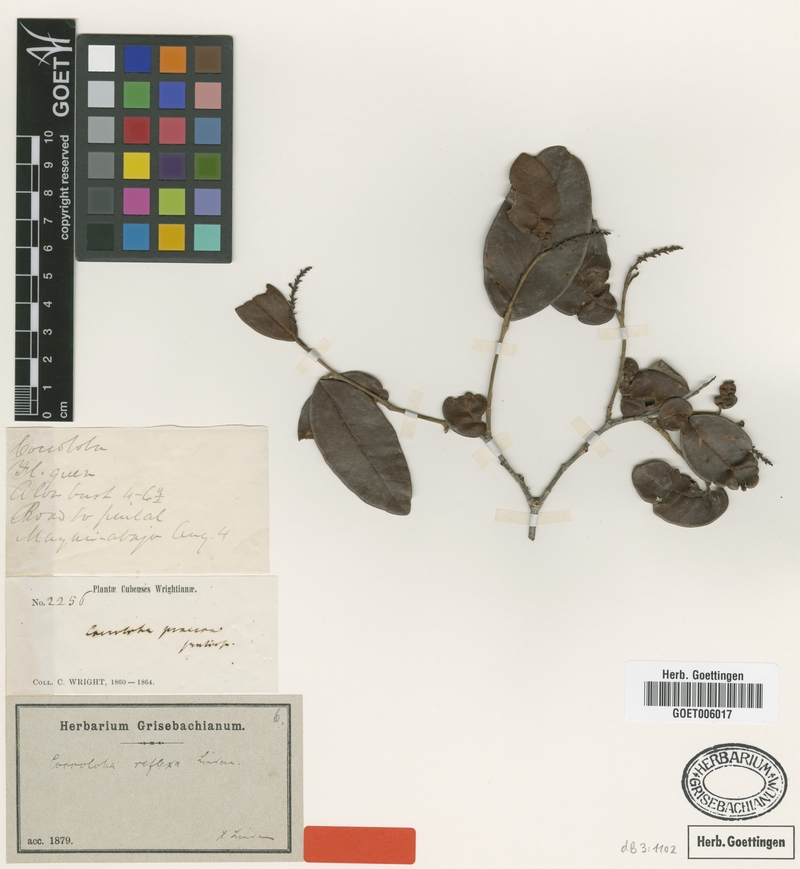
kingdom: Plantae
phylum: Tracheophyta
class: Magnoliopsida
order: Caryophyllales
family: Polygonaceae
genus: Coccoloba
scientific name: Coccoloba reflexa
